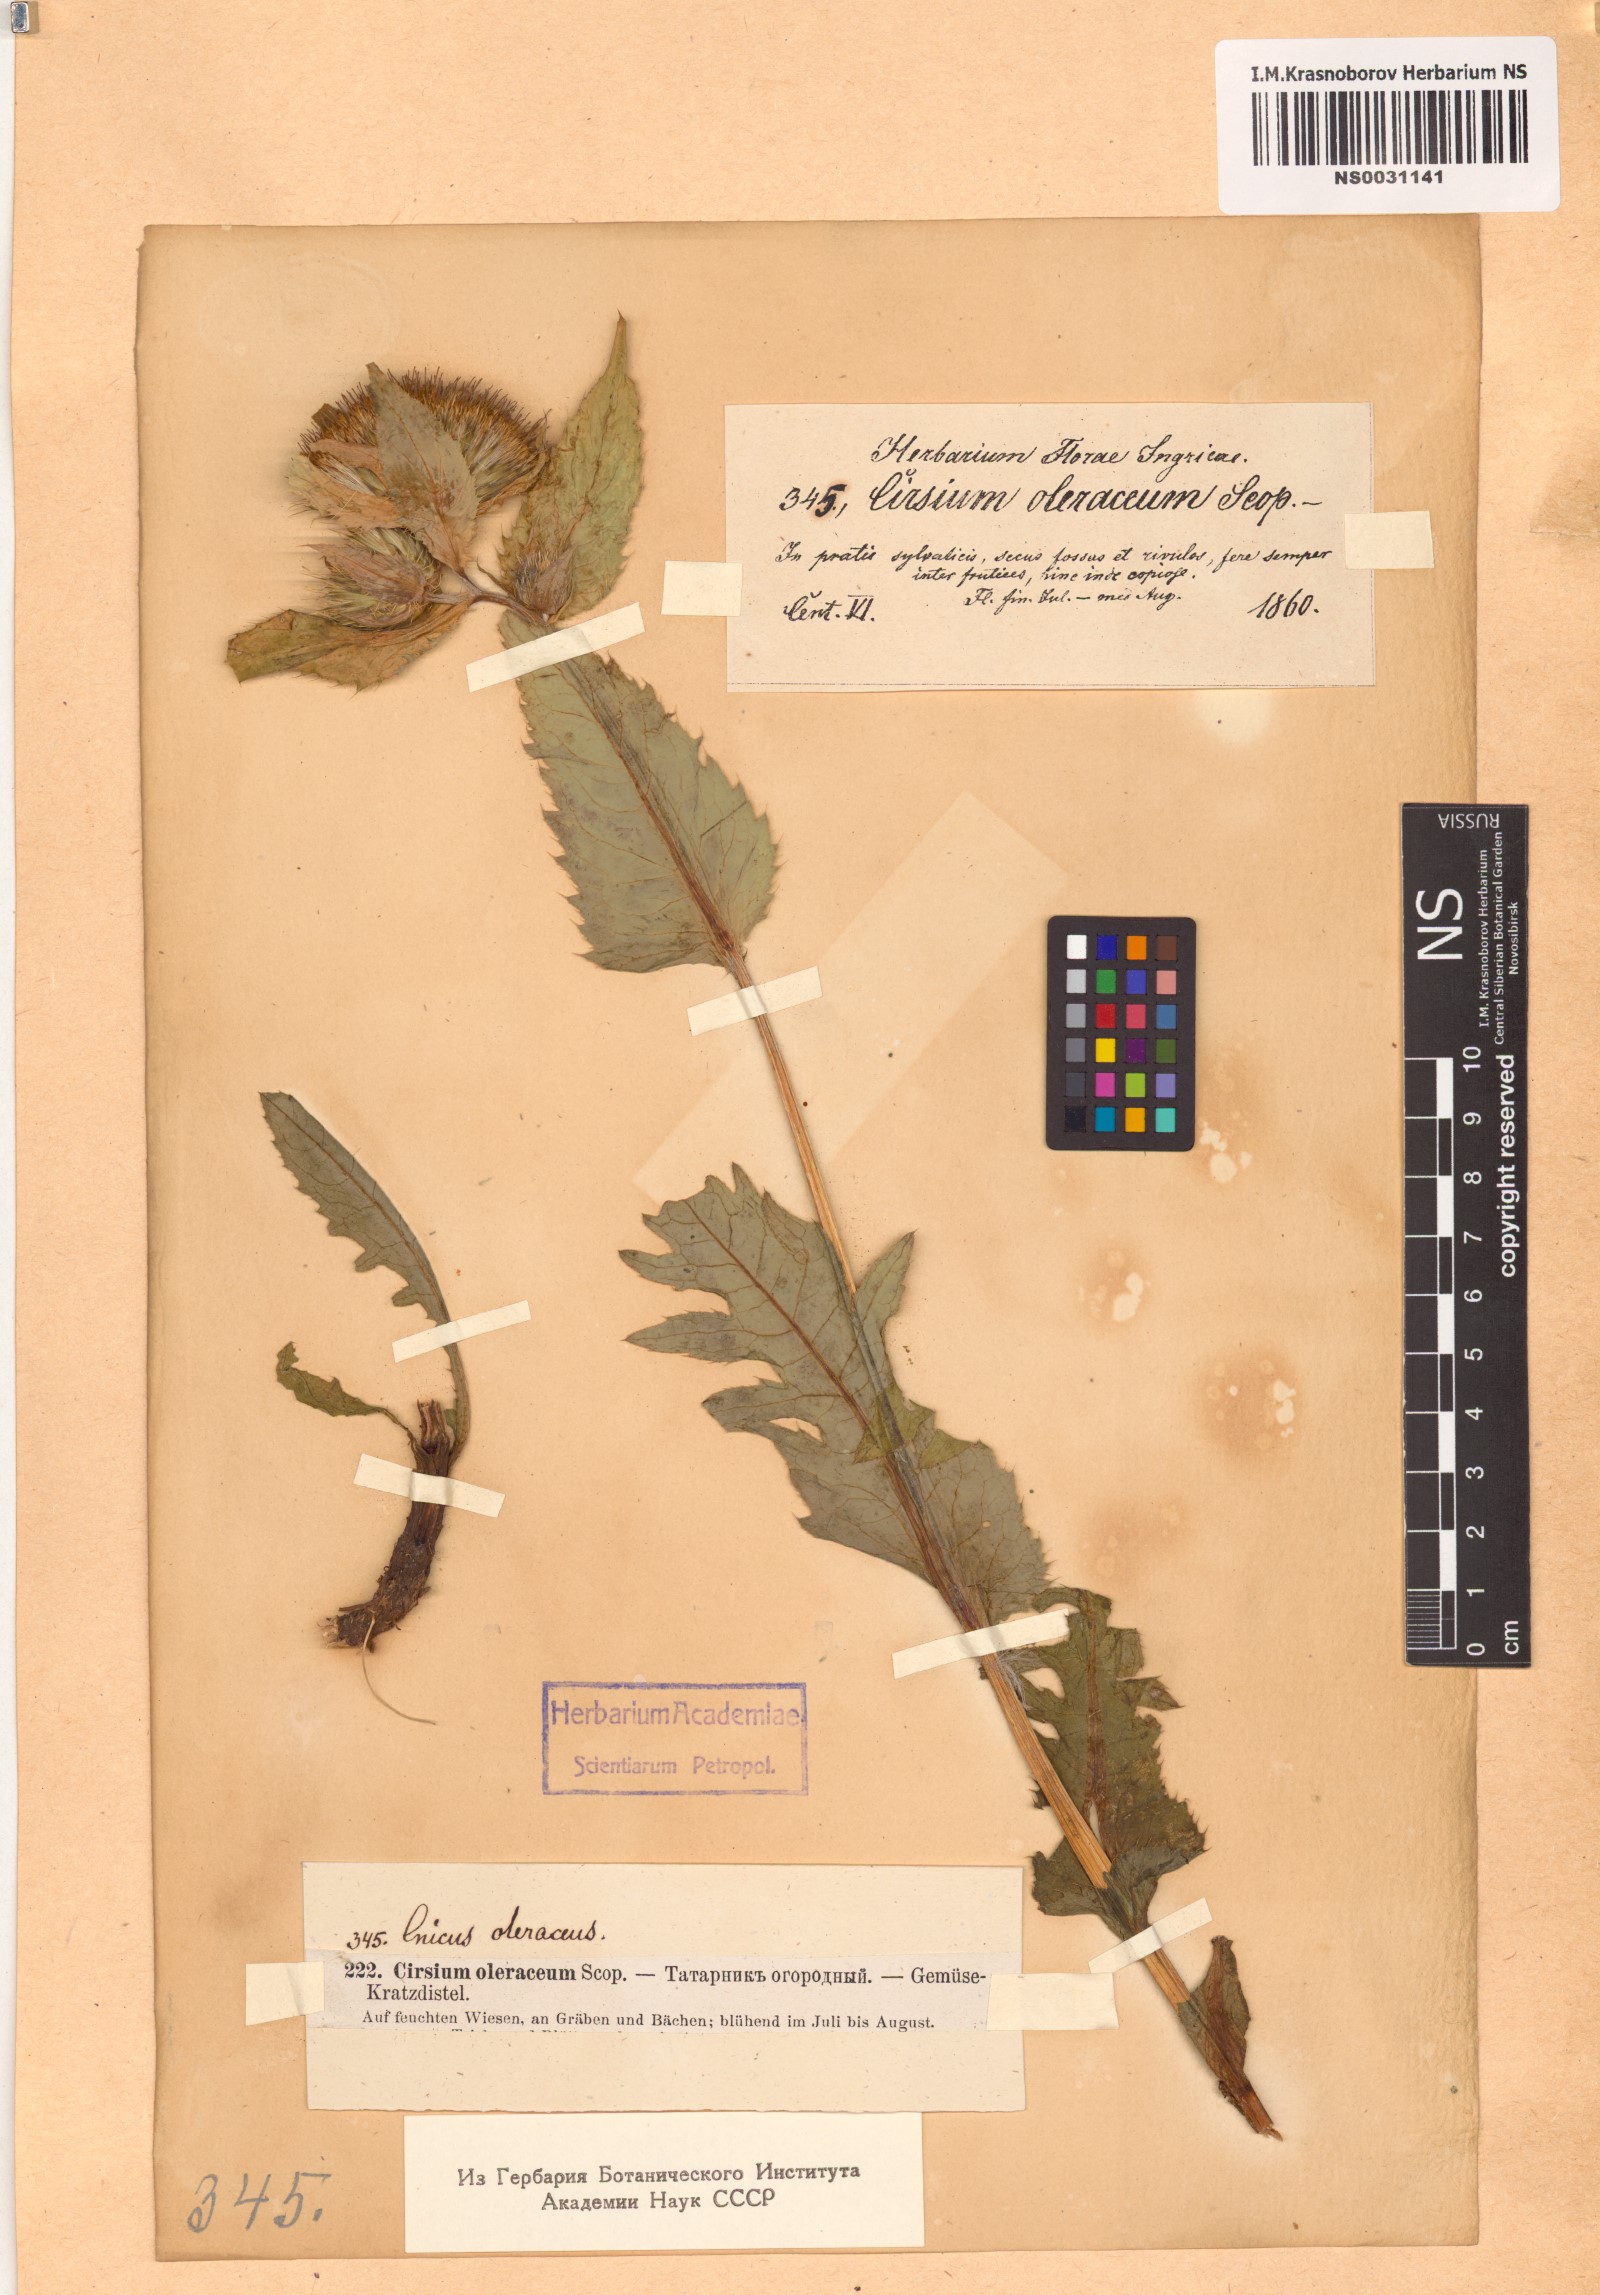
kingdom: Plantae
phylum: Tracheophyta
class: Magnoliopsida
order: Asterales
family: Asteraceae
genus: Cirsium
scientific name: Cirsium oleraceum
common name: Cabbage thistle
